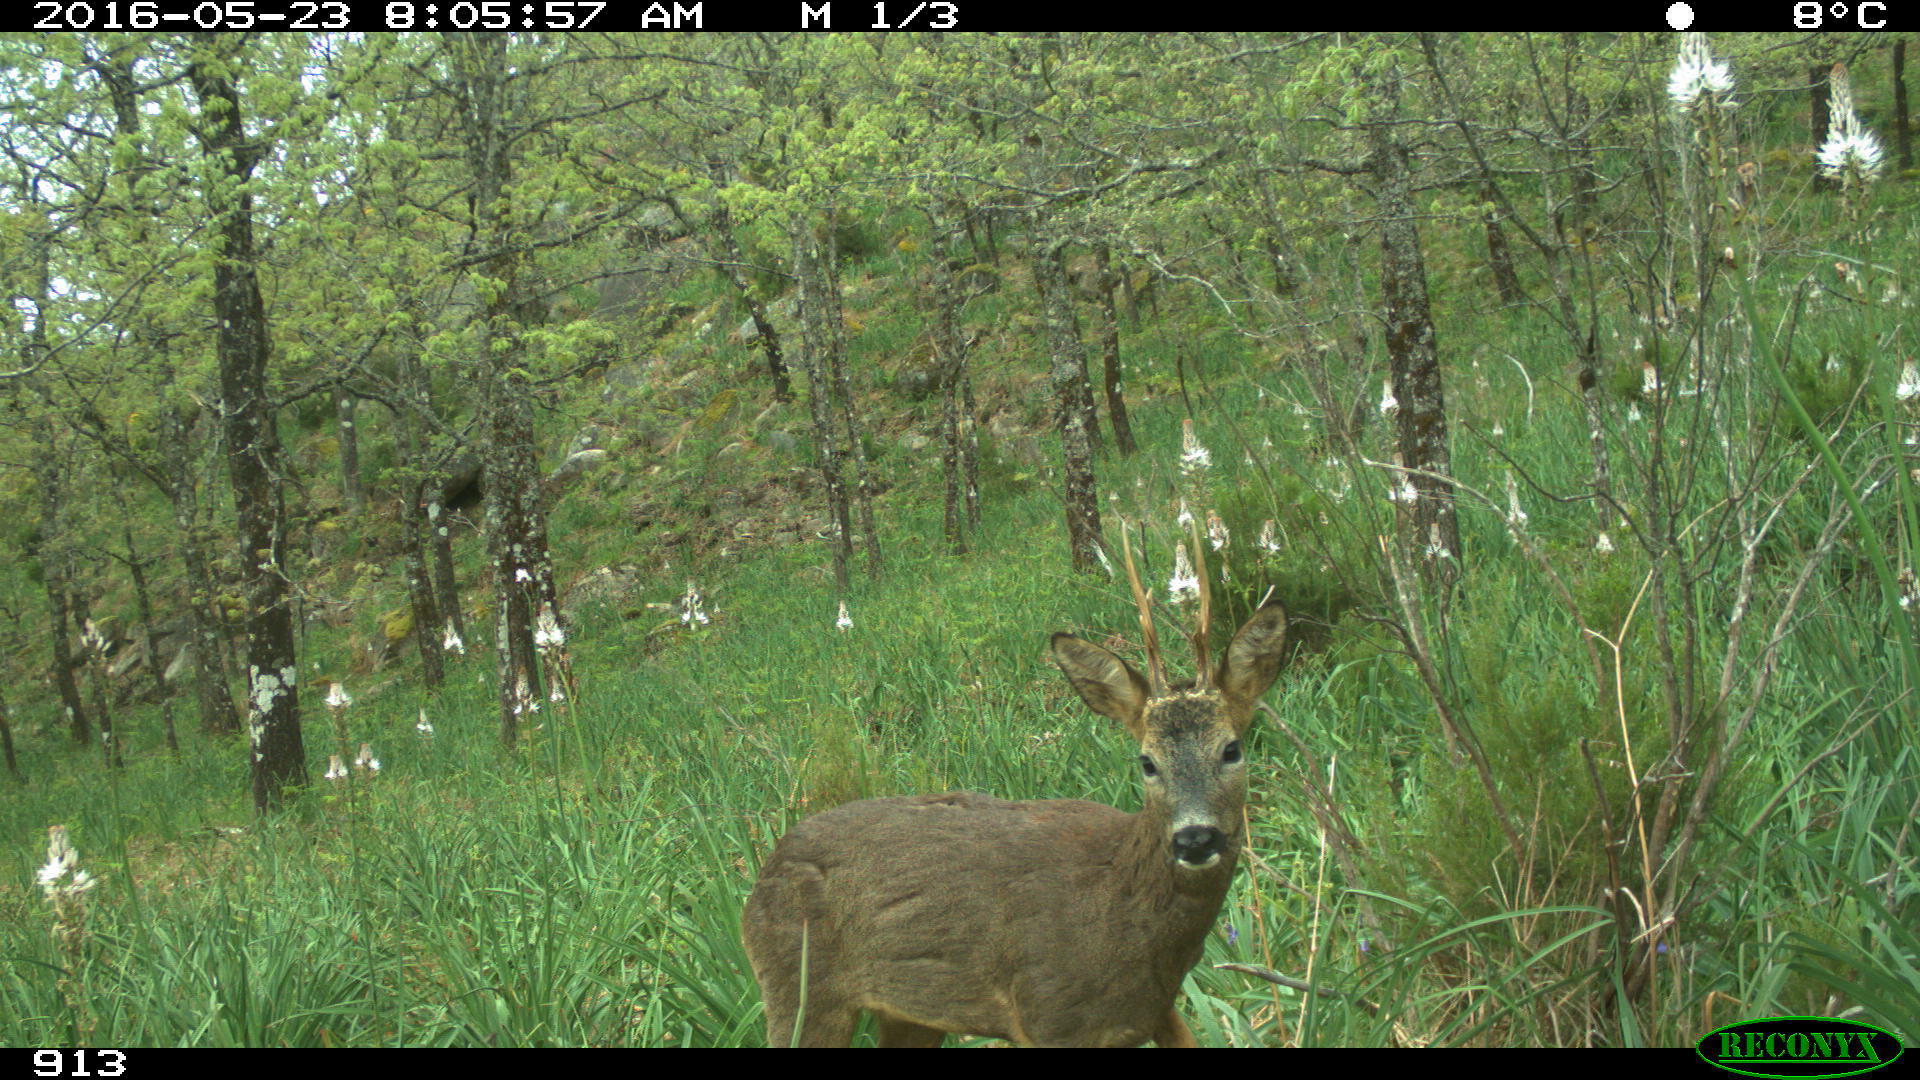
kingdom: Animalia
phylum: Chordata
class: Mammalia
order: Artiodactyla
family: Cervidae
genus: Capreolus
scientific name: Capreolus capreolus
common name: Western roe deer
